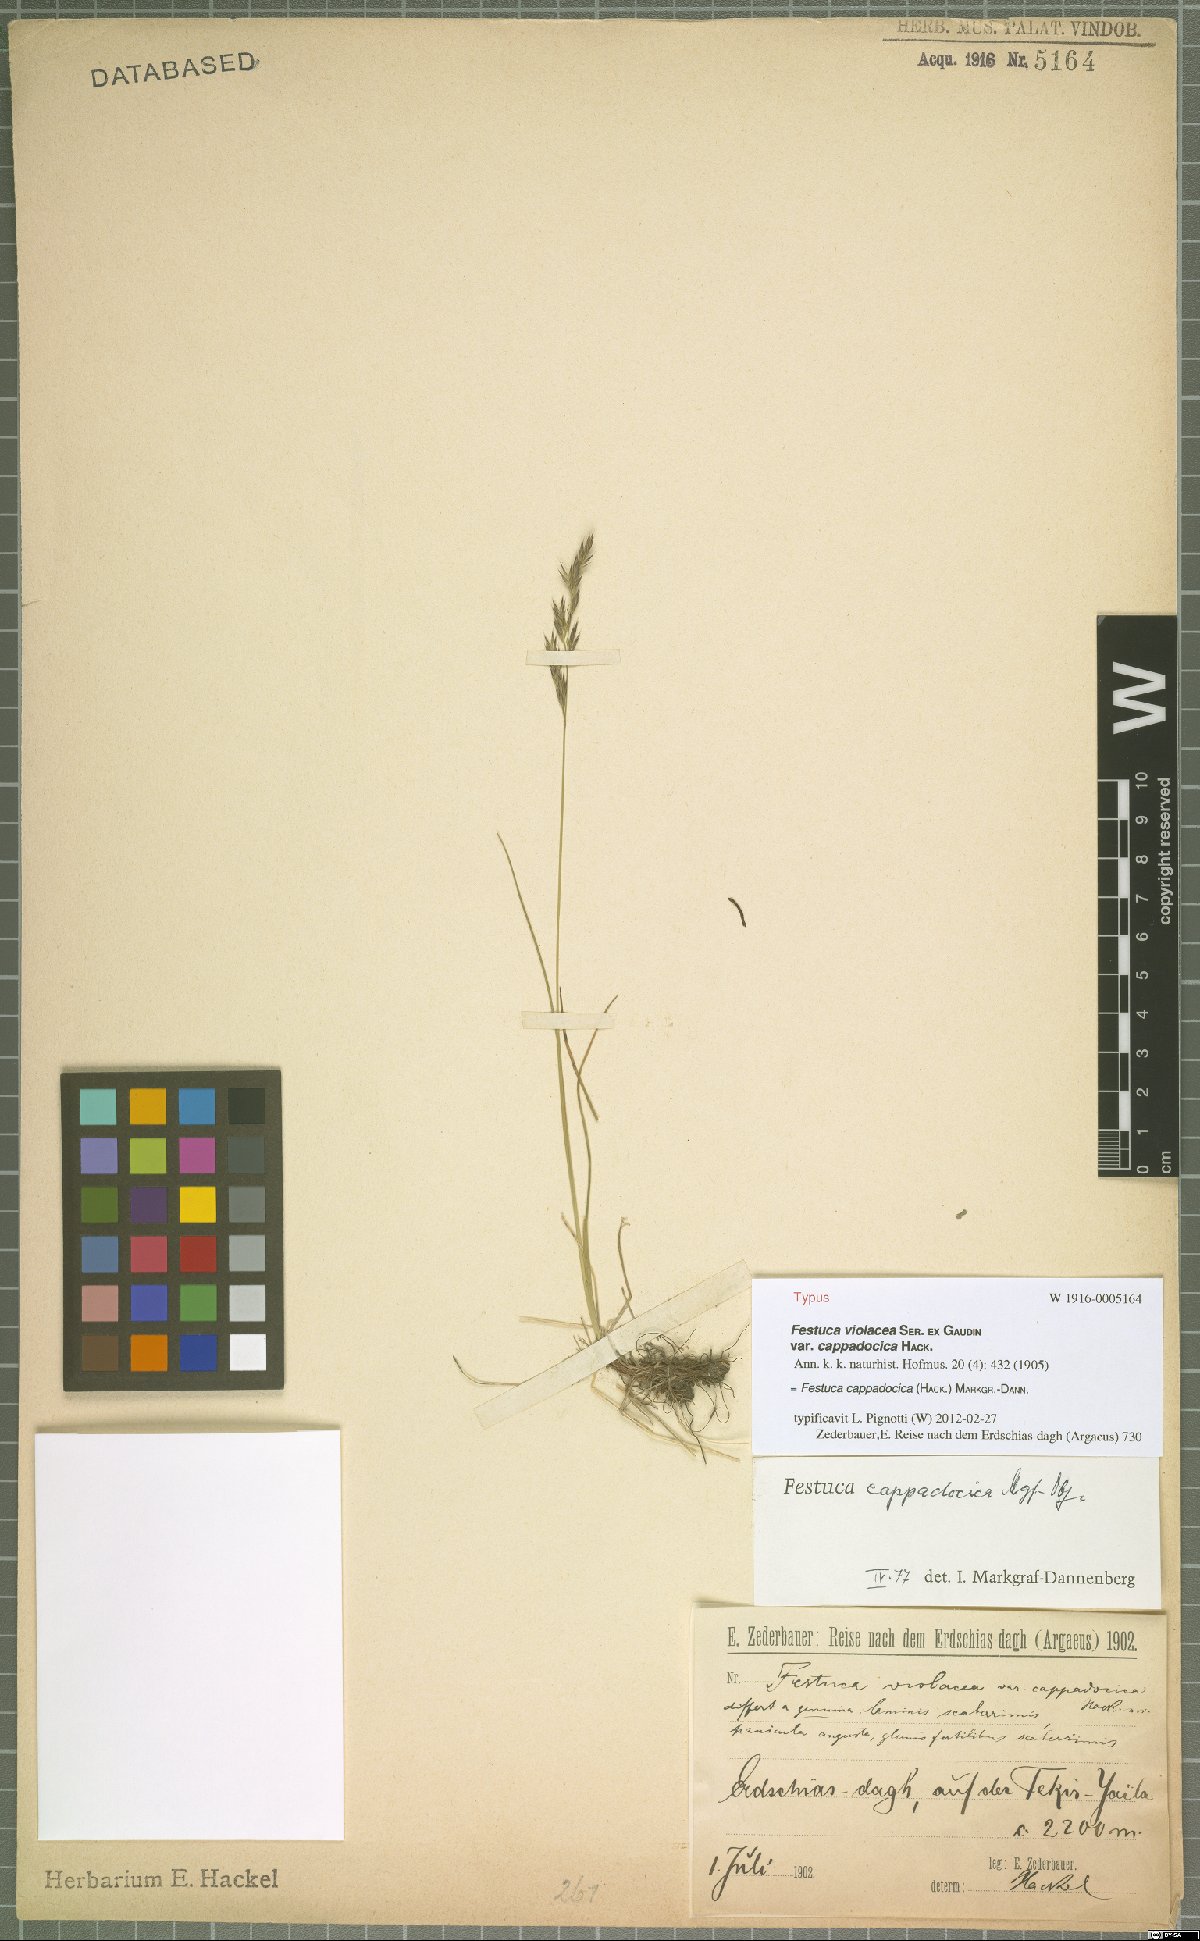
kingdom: Plantae
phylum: Tracheophyta
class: Liliopsida
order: Poales
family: Poaceae
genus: Festuca
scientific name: Festuca cappadocica
